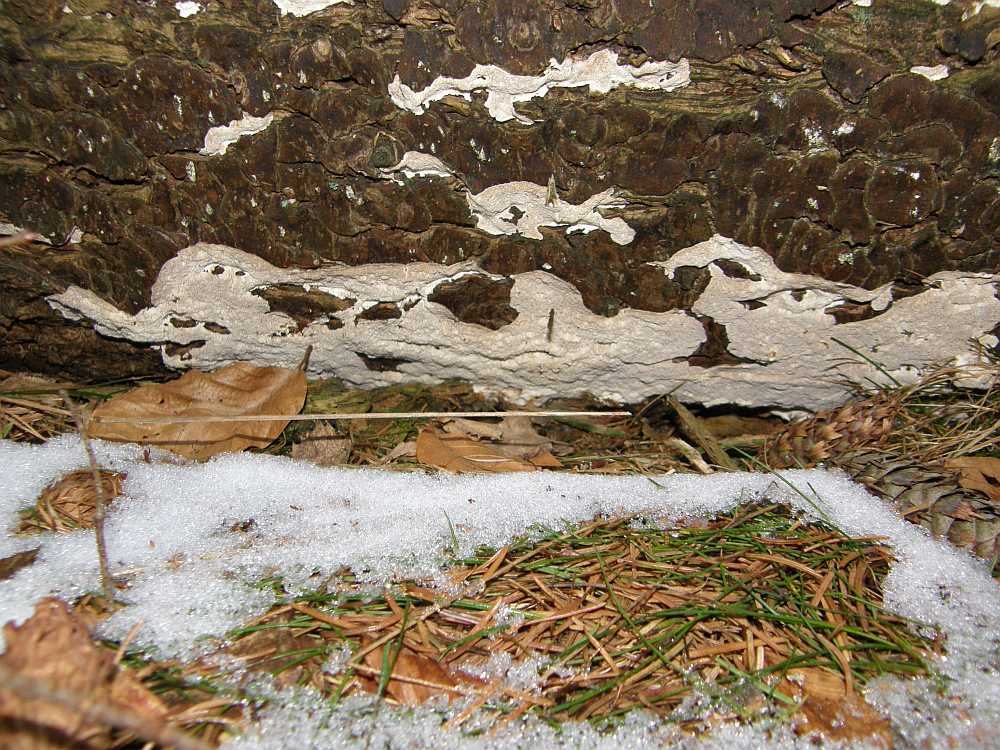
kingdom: Fungi
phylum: Basidiomycota
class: Agaricomycetes
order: Polyporales
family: Gelatoporiaceae
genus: Cinereomyces
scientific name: Cinereomyces lindbladii
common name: almindelig gråporesvamp
